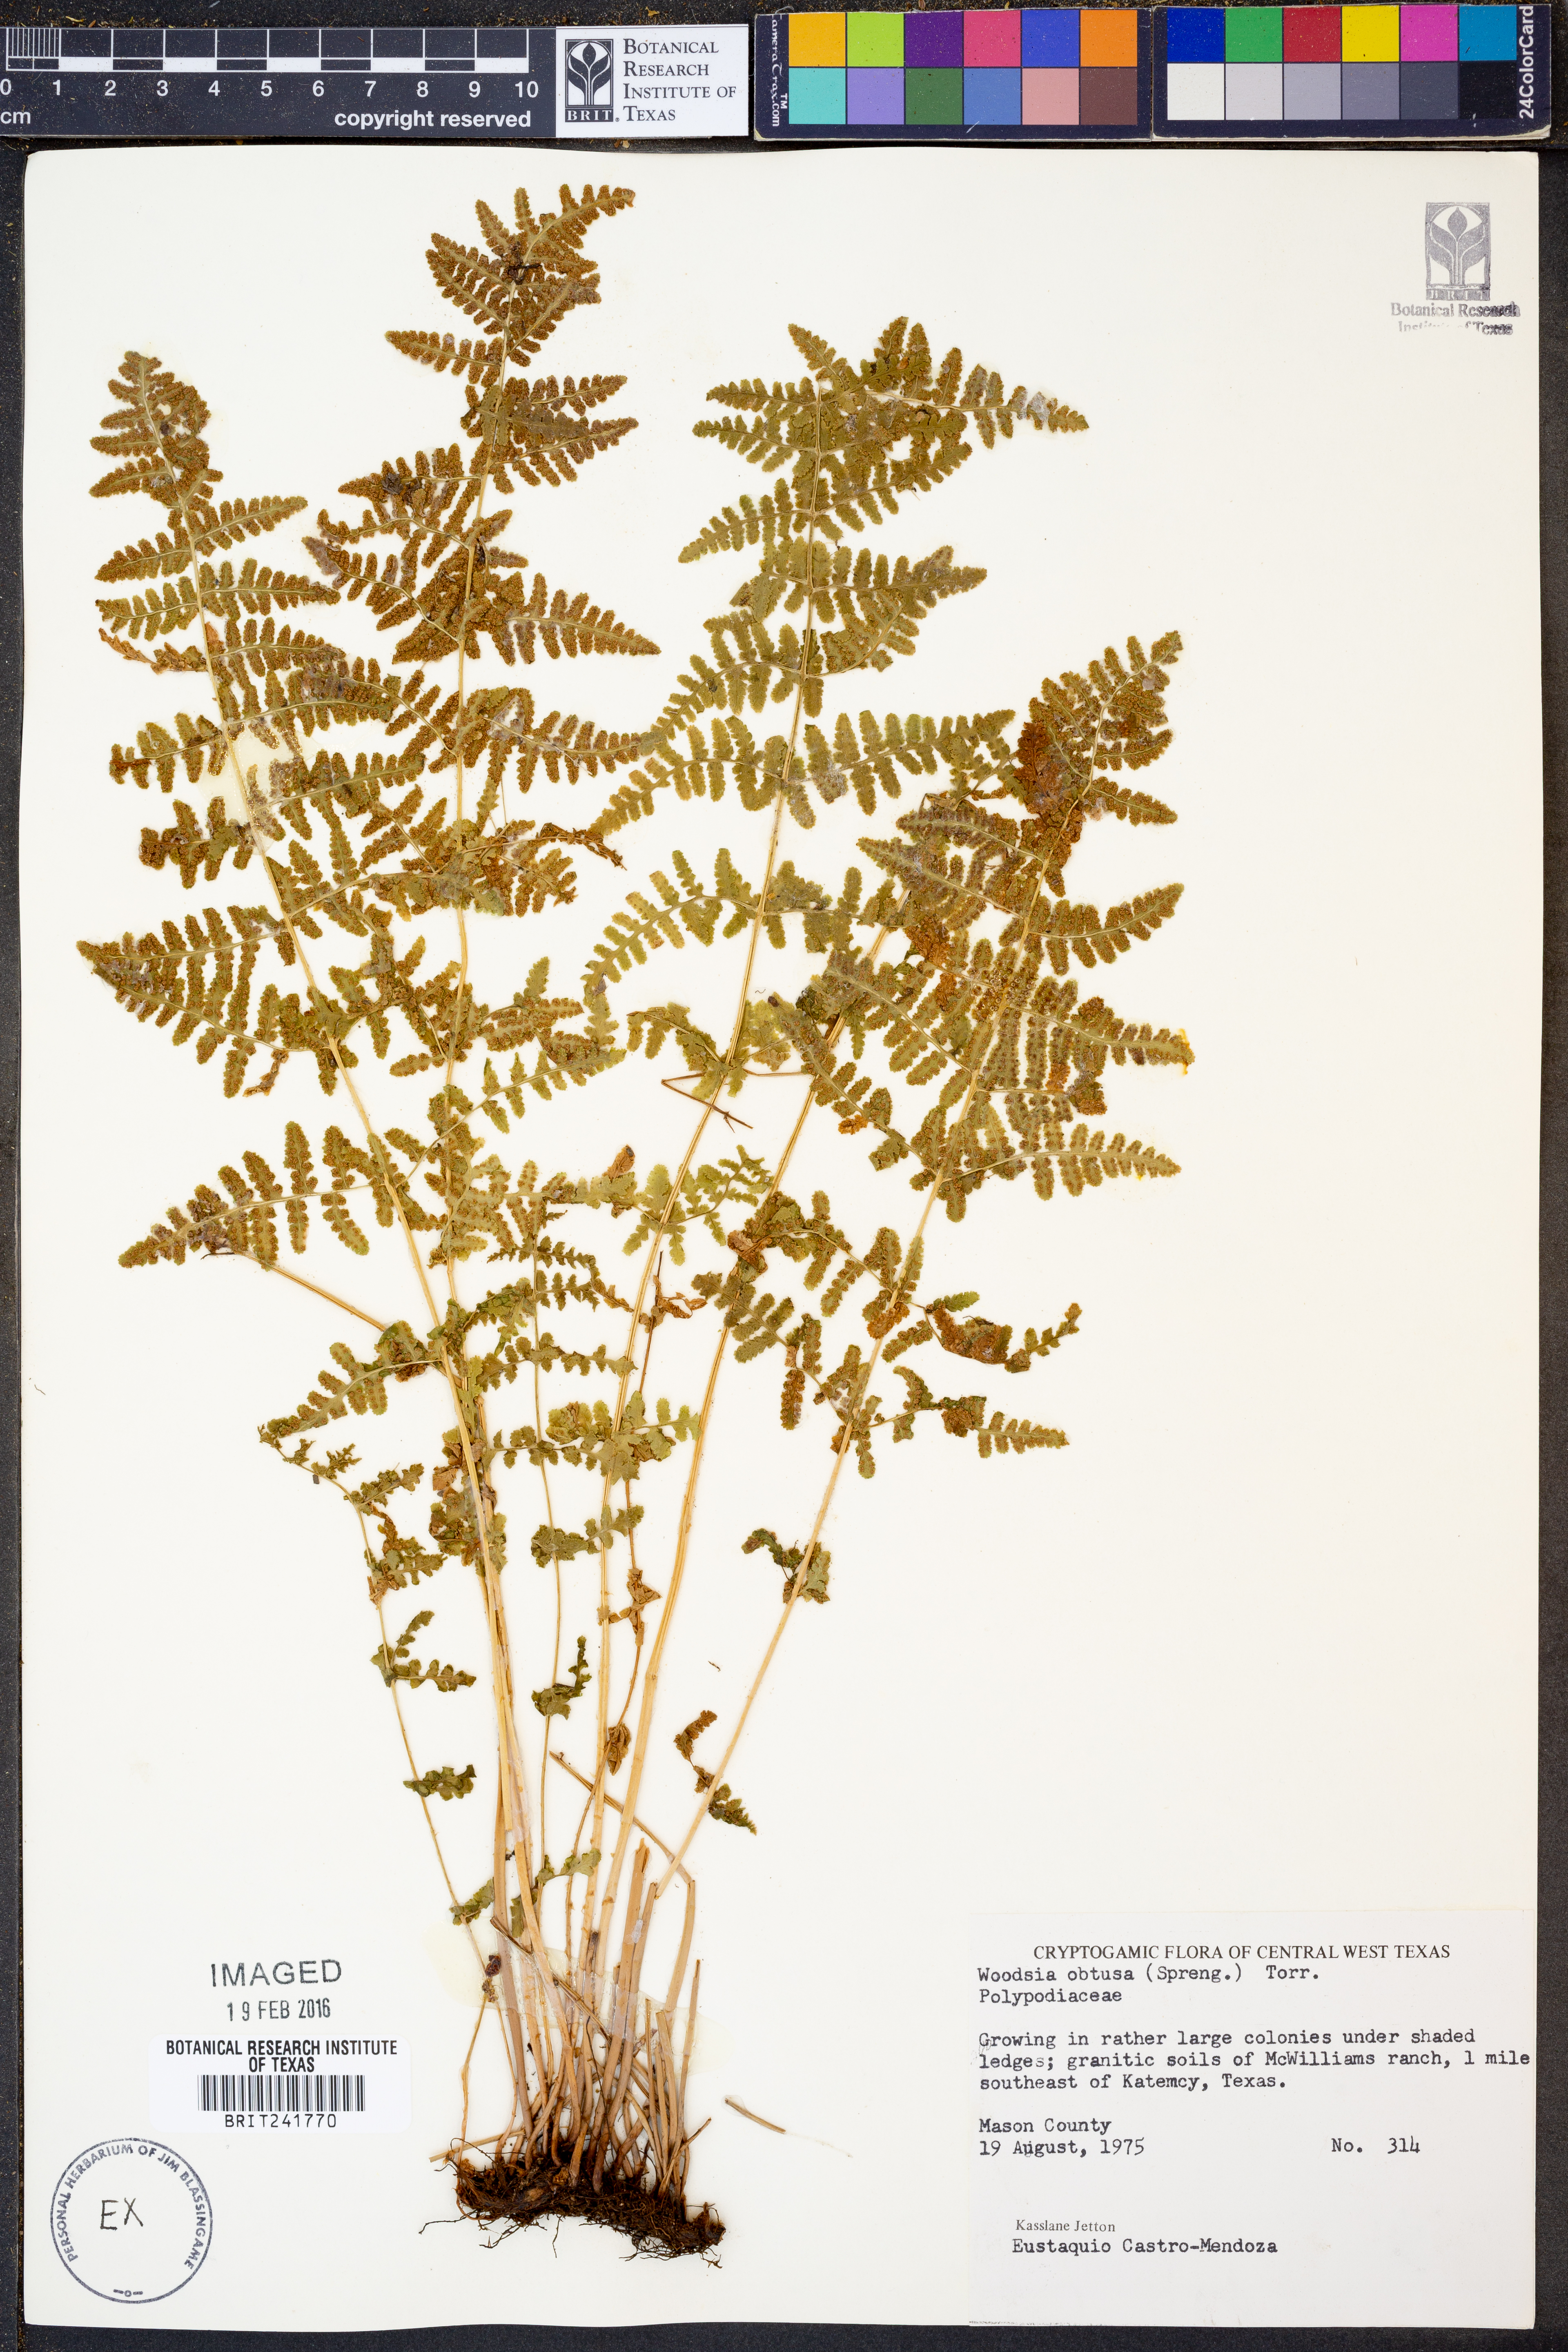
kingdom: Plantae
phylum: Tracheophyta
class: Polypodiopsida
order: Polypodiales
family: Woodsiaceae
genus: Physematium
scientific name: Physematium obtusum
